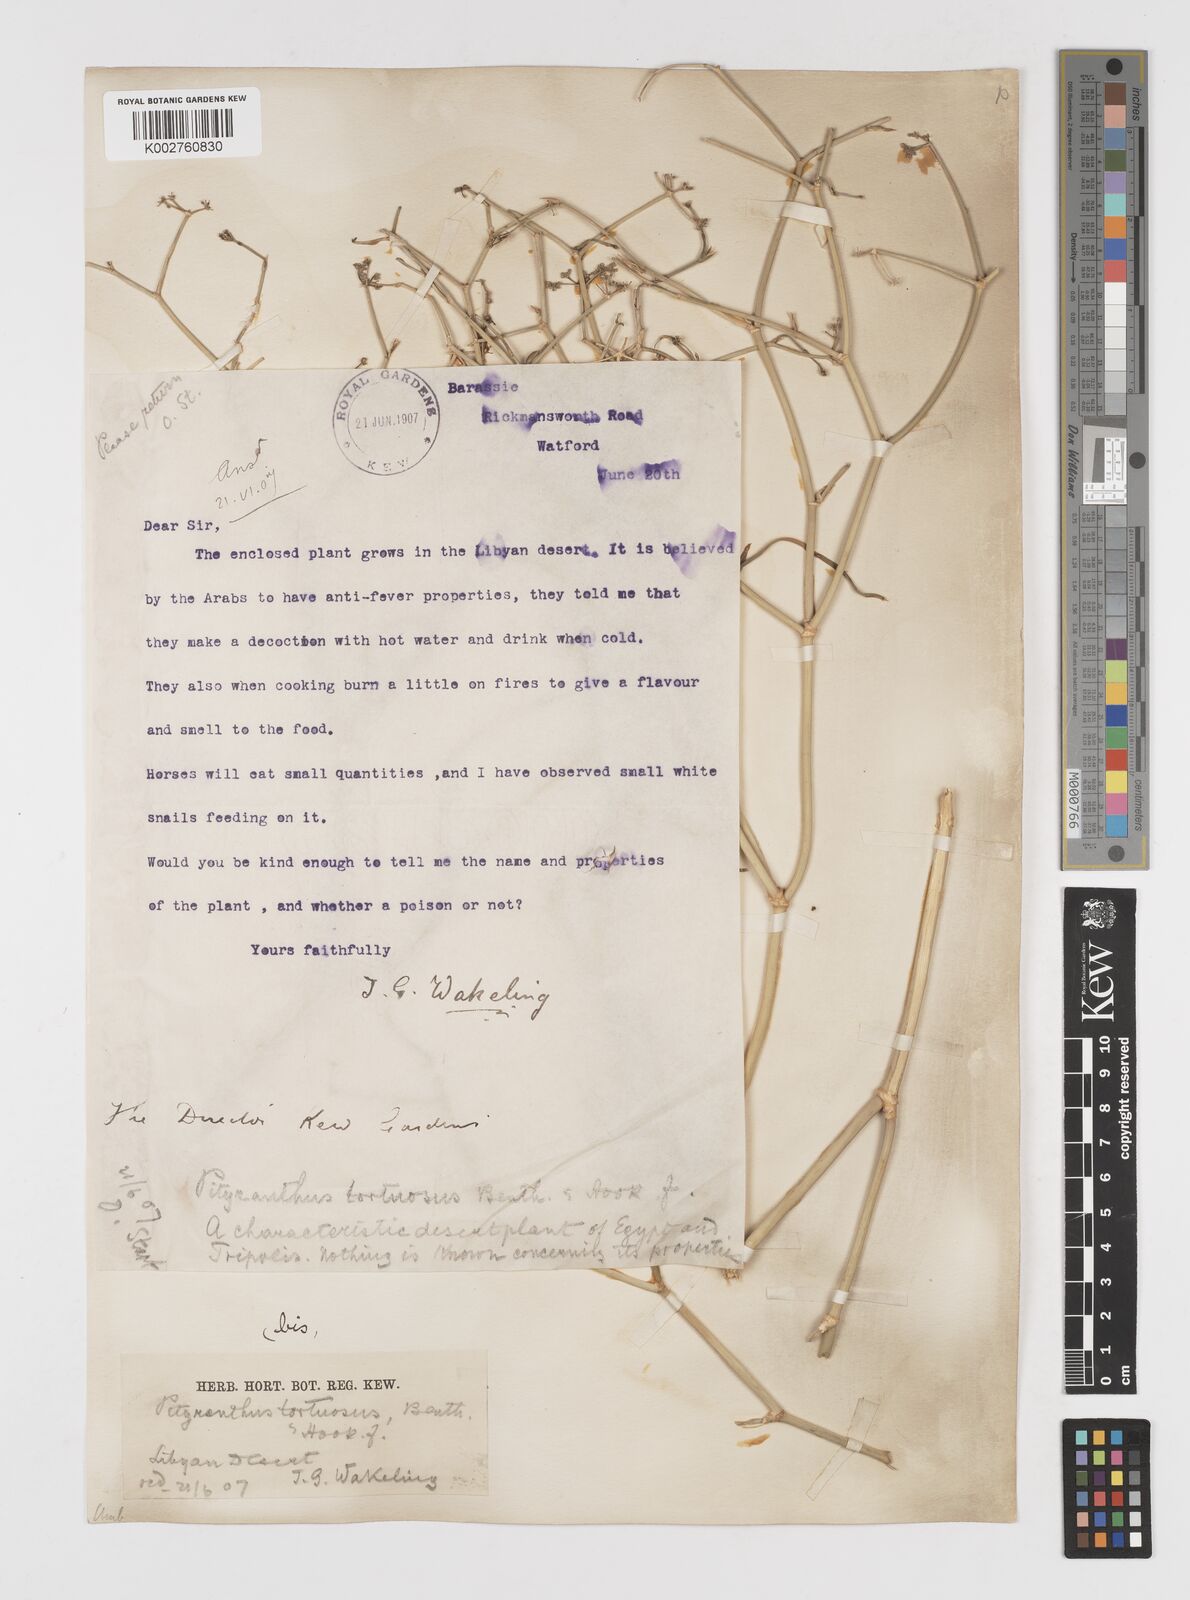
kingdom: Plantae
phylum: Tracheophyta
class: Magnoliopsida
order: Apiales
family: Apiaceae
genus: Deverra
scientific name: Deverra tortuosa
